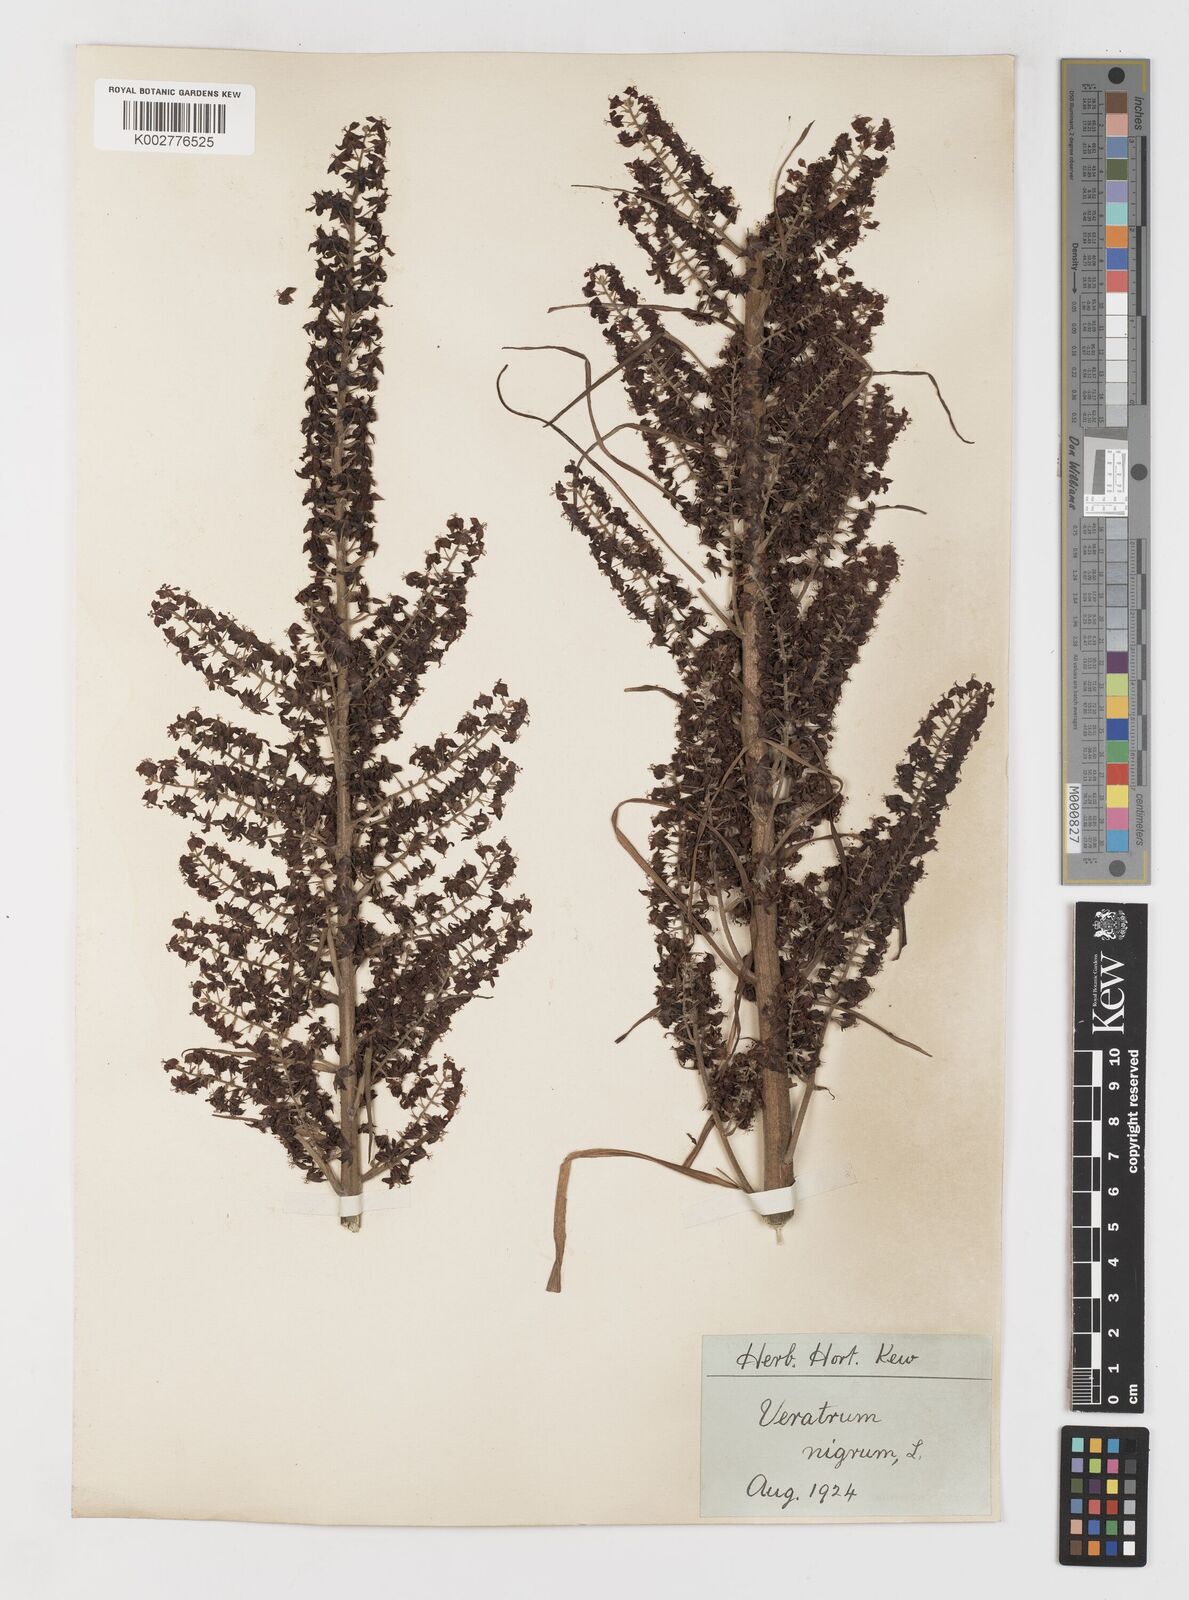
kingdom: Plantae
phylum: Tracheophyta
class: Liliopsida
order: Liliales
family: Melanthiaceae
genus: Veratrum
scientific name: Veratrum nigrum
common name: Black veratrum
